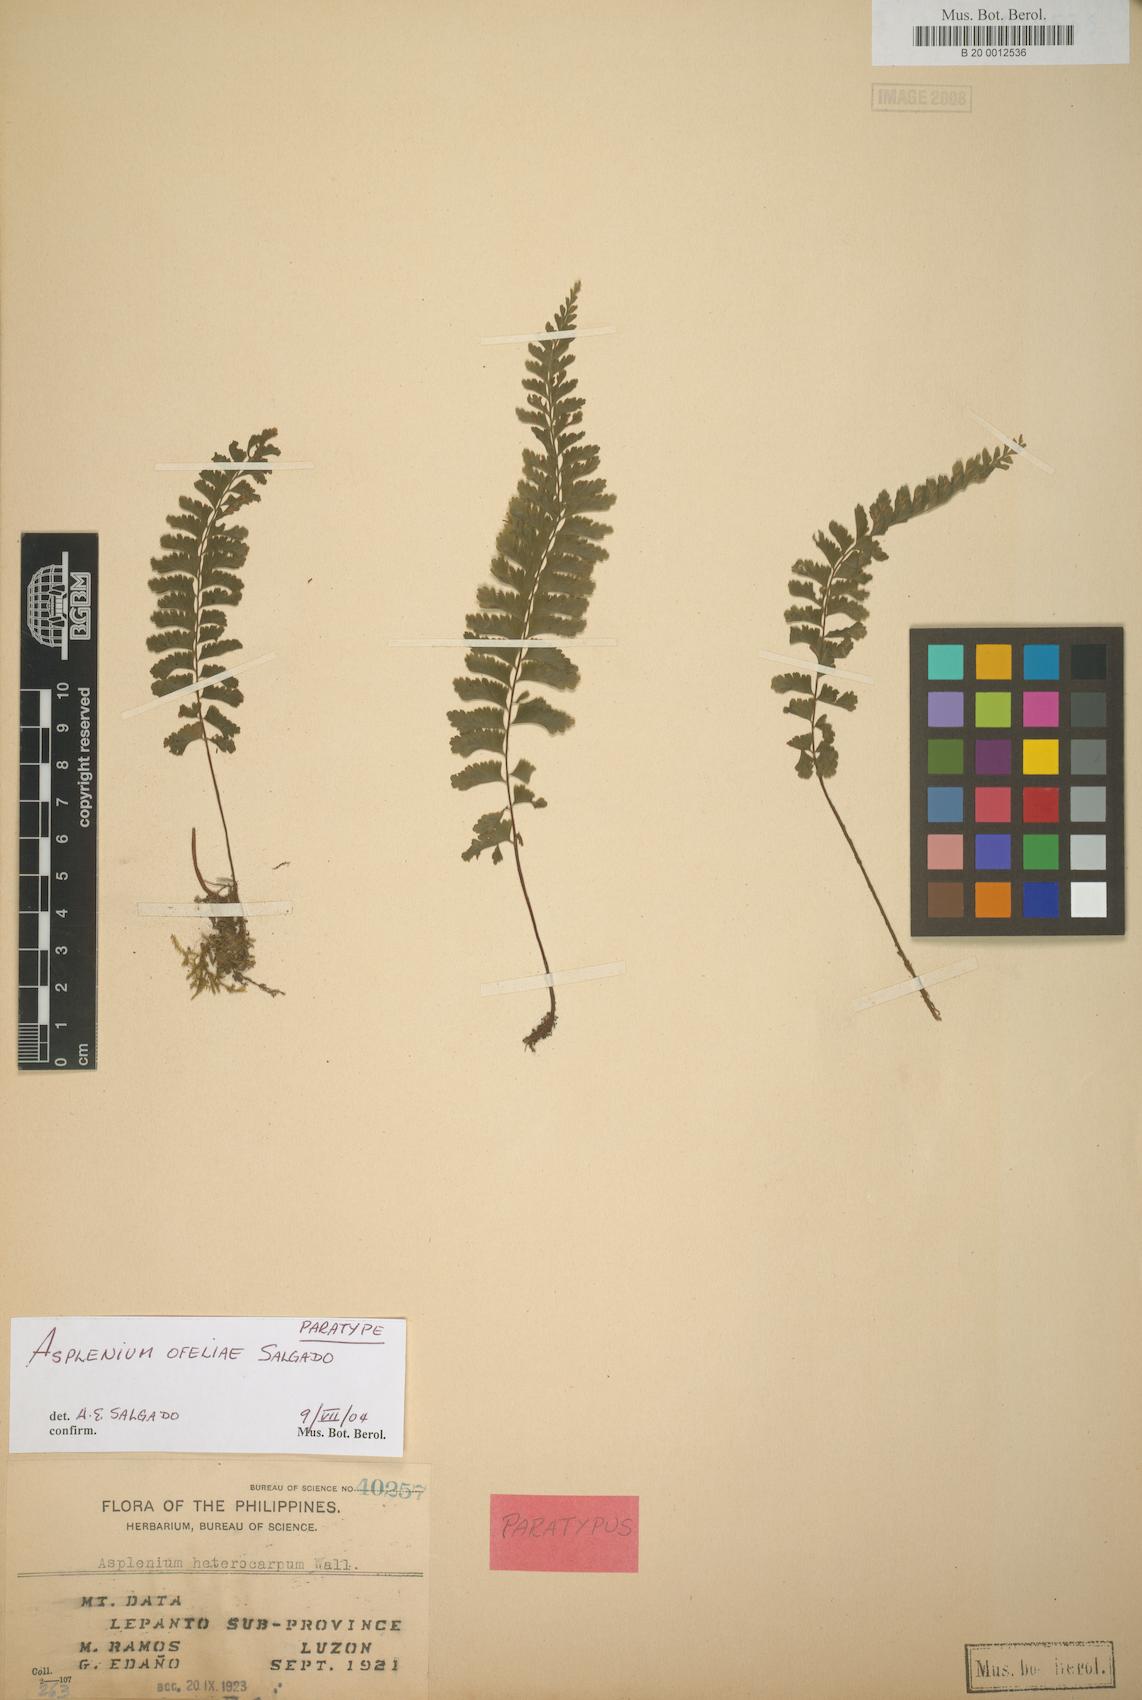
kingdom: Plantae
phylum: Tracheophyta
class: Polypodiopsida
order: Polypodiales
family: Aspleniaceae
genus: Hymenasplenium
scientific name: Hymenasplenium ofeliae
